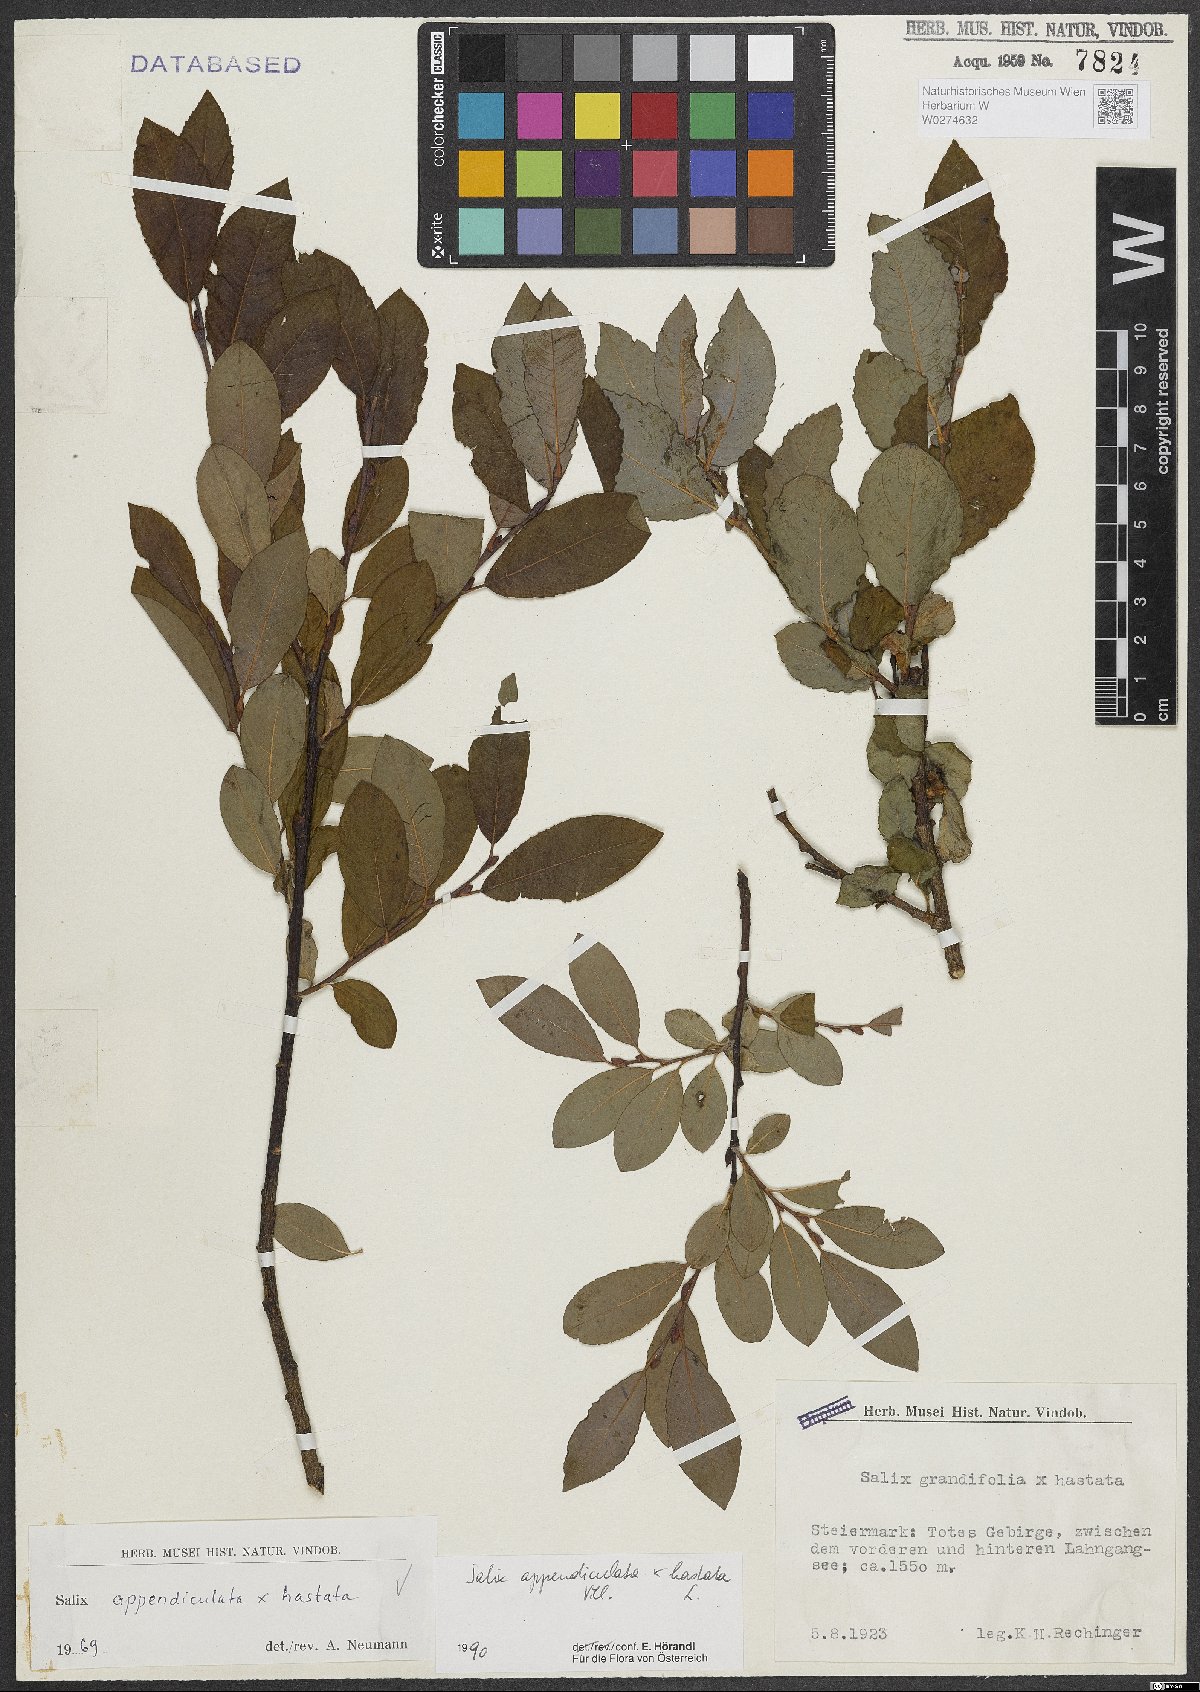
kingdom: Plantae
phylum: Tracheophyta
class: Magnoliopsida
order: Malpighiales
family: Salicaceae
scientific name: Salicaceae
